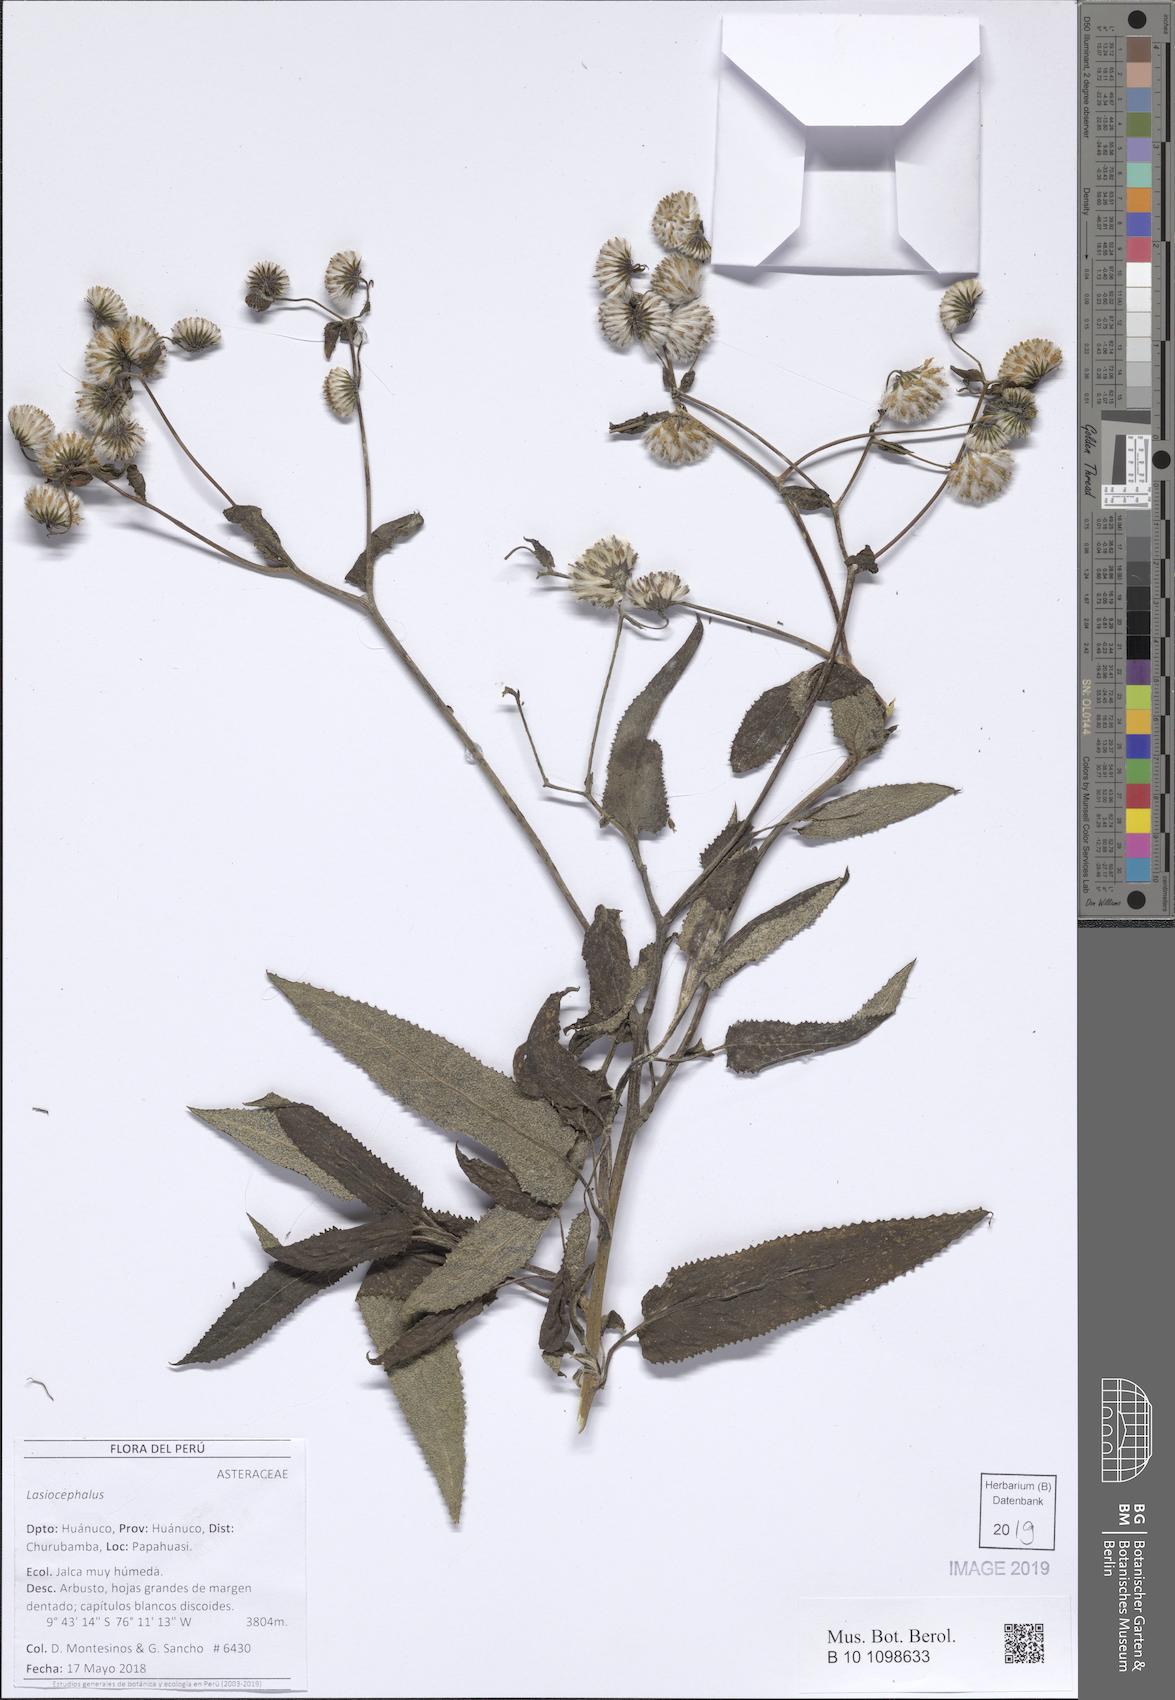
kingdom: Plantae
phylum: Tracheophyta
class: Magnoliopsida
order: Asterales
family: Asteraceae
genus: Lasiocephalus
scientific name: Lasiocephalus
